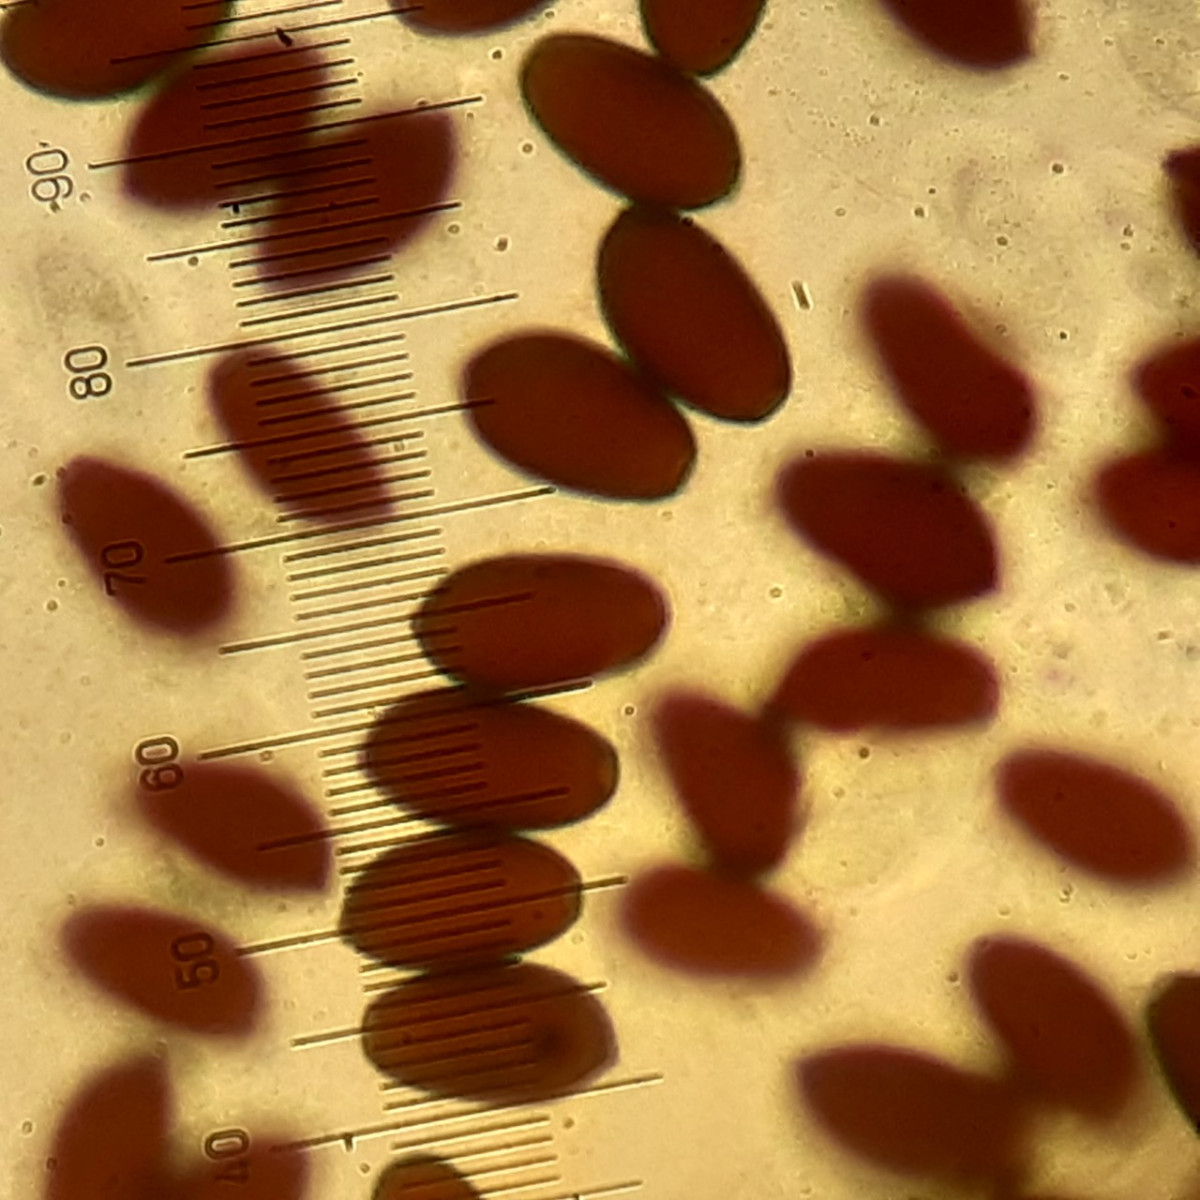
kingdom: Fungi
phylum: Basidiomycota
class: Agaricomycetes
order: Agaricales
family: Psathyrellaceae
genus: Coprinopsis
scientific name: Coprinopsis lagopus
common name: dunstokket blækhat
